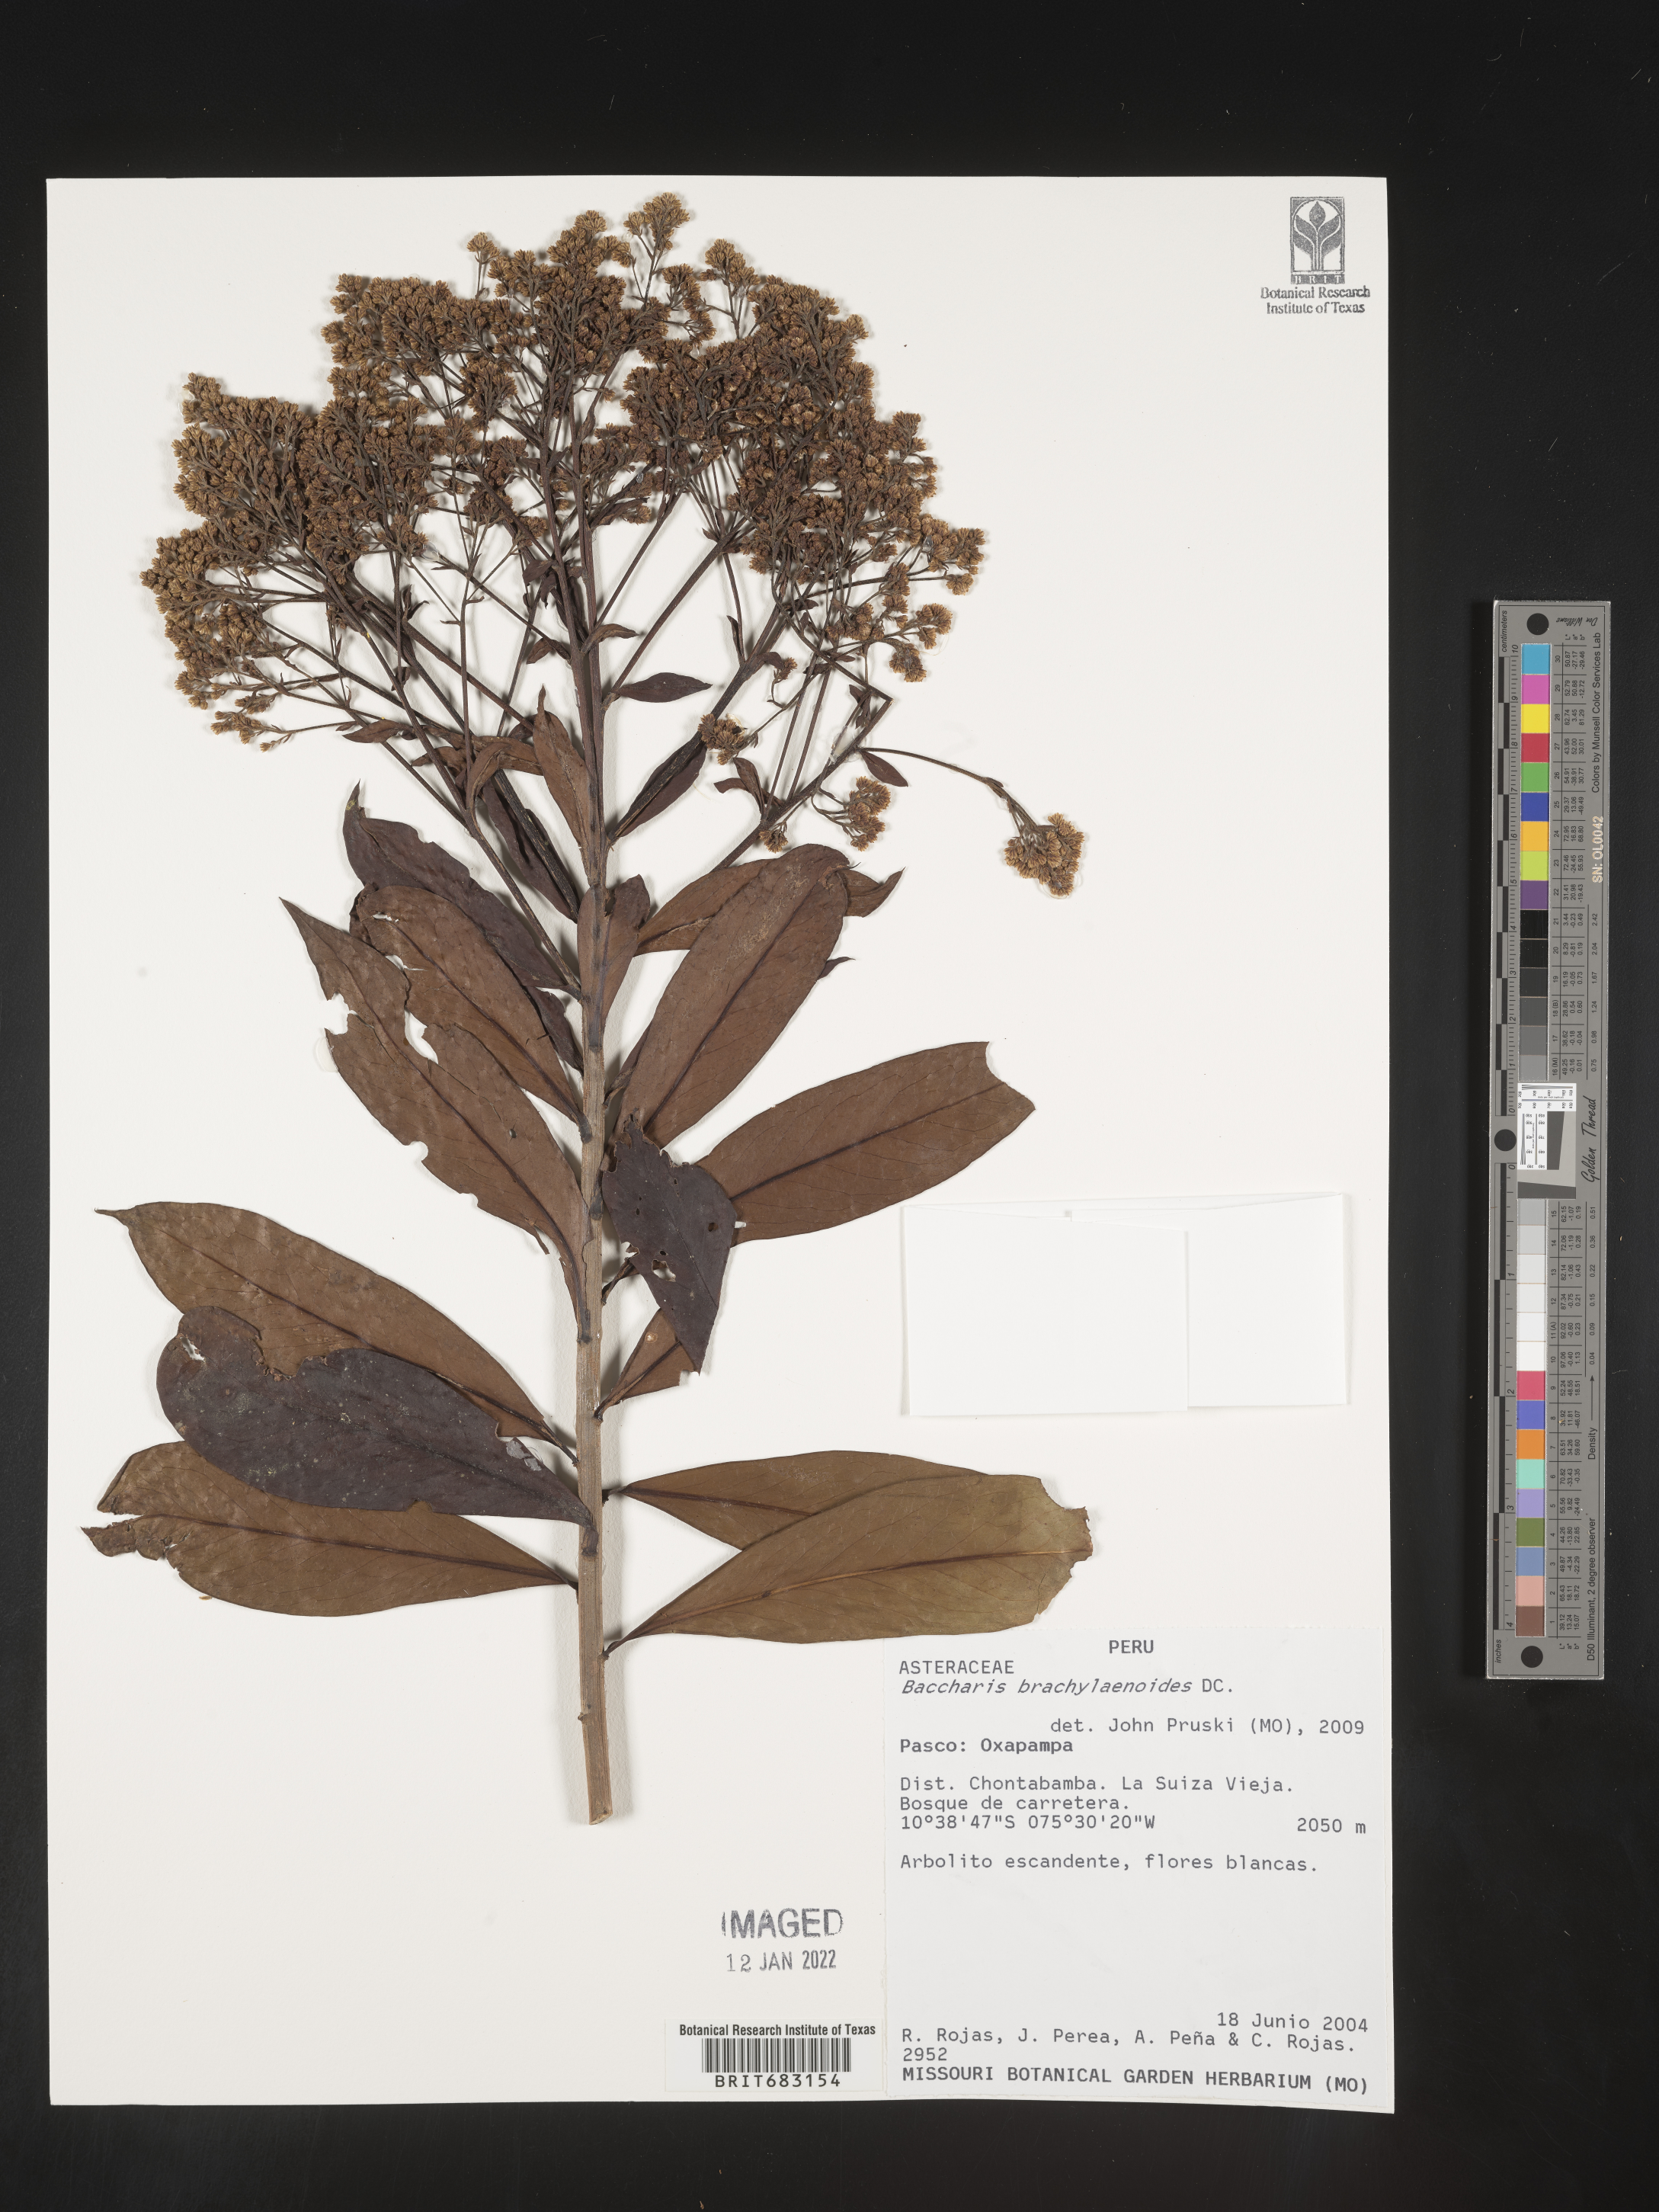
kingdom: Plantae
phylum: Tracheophyta
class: Magnoliopsida
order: Asterales
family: Asteraceae
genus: Baccharis
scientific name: Baccharis
